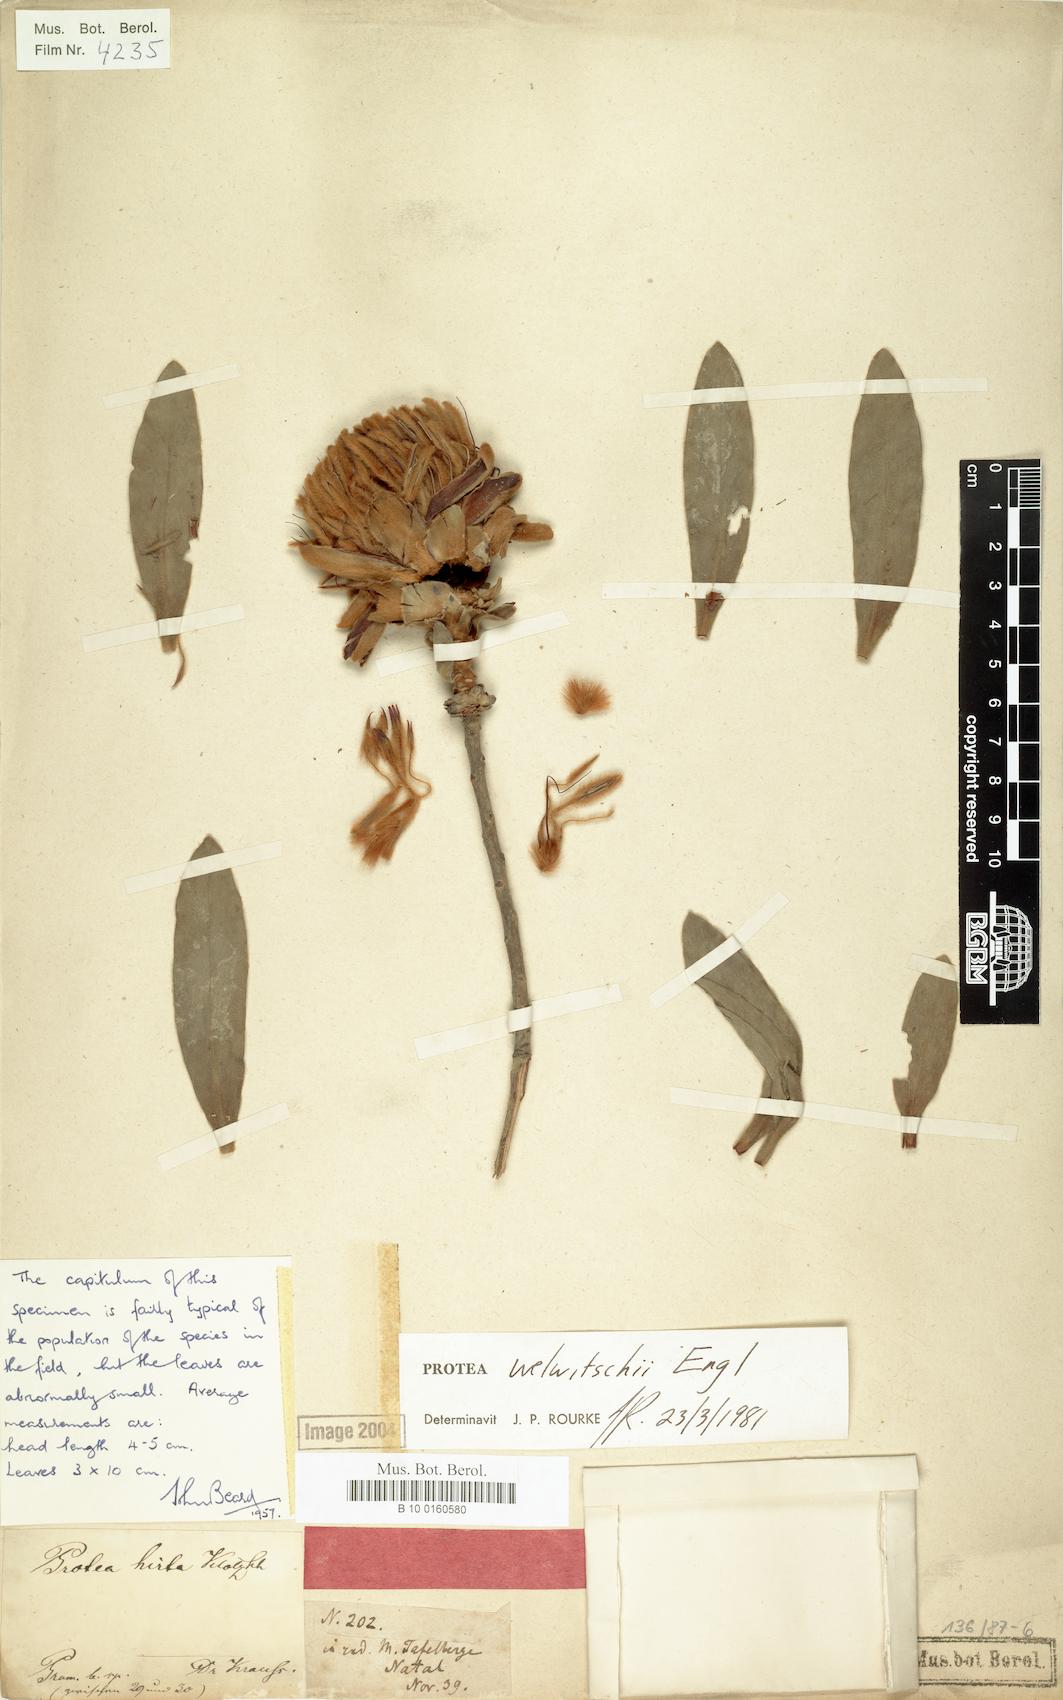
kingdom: Plantae
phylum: Tracheophyta
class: Magnoliopsida
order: Proteales
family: Proteaceae
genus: Protea
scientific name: Protea welwitschii
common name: Cluster-head protea
